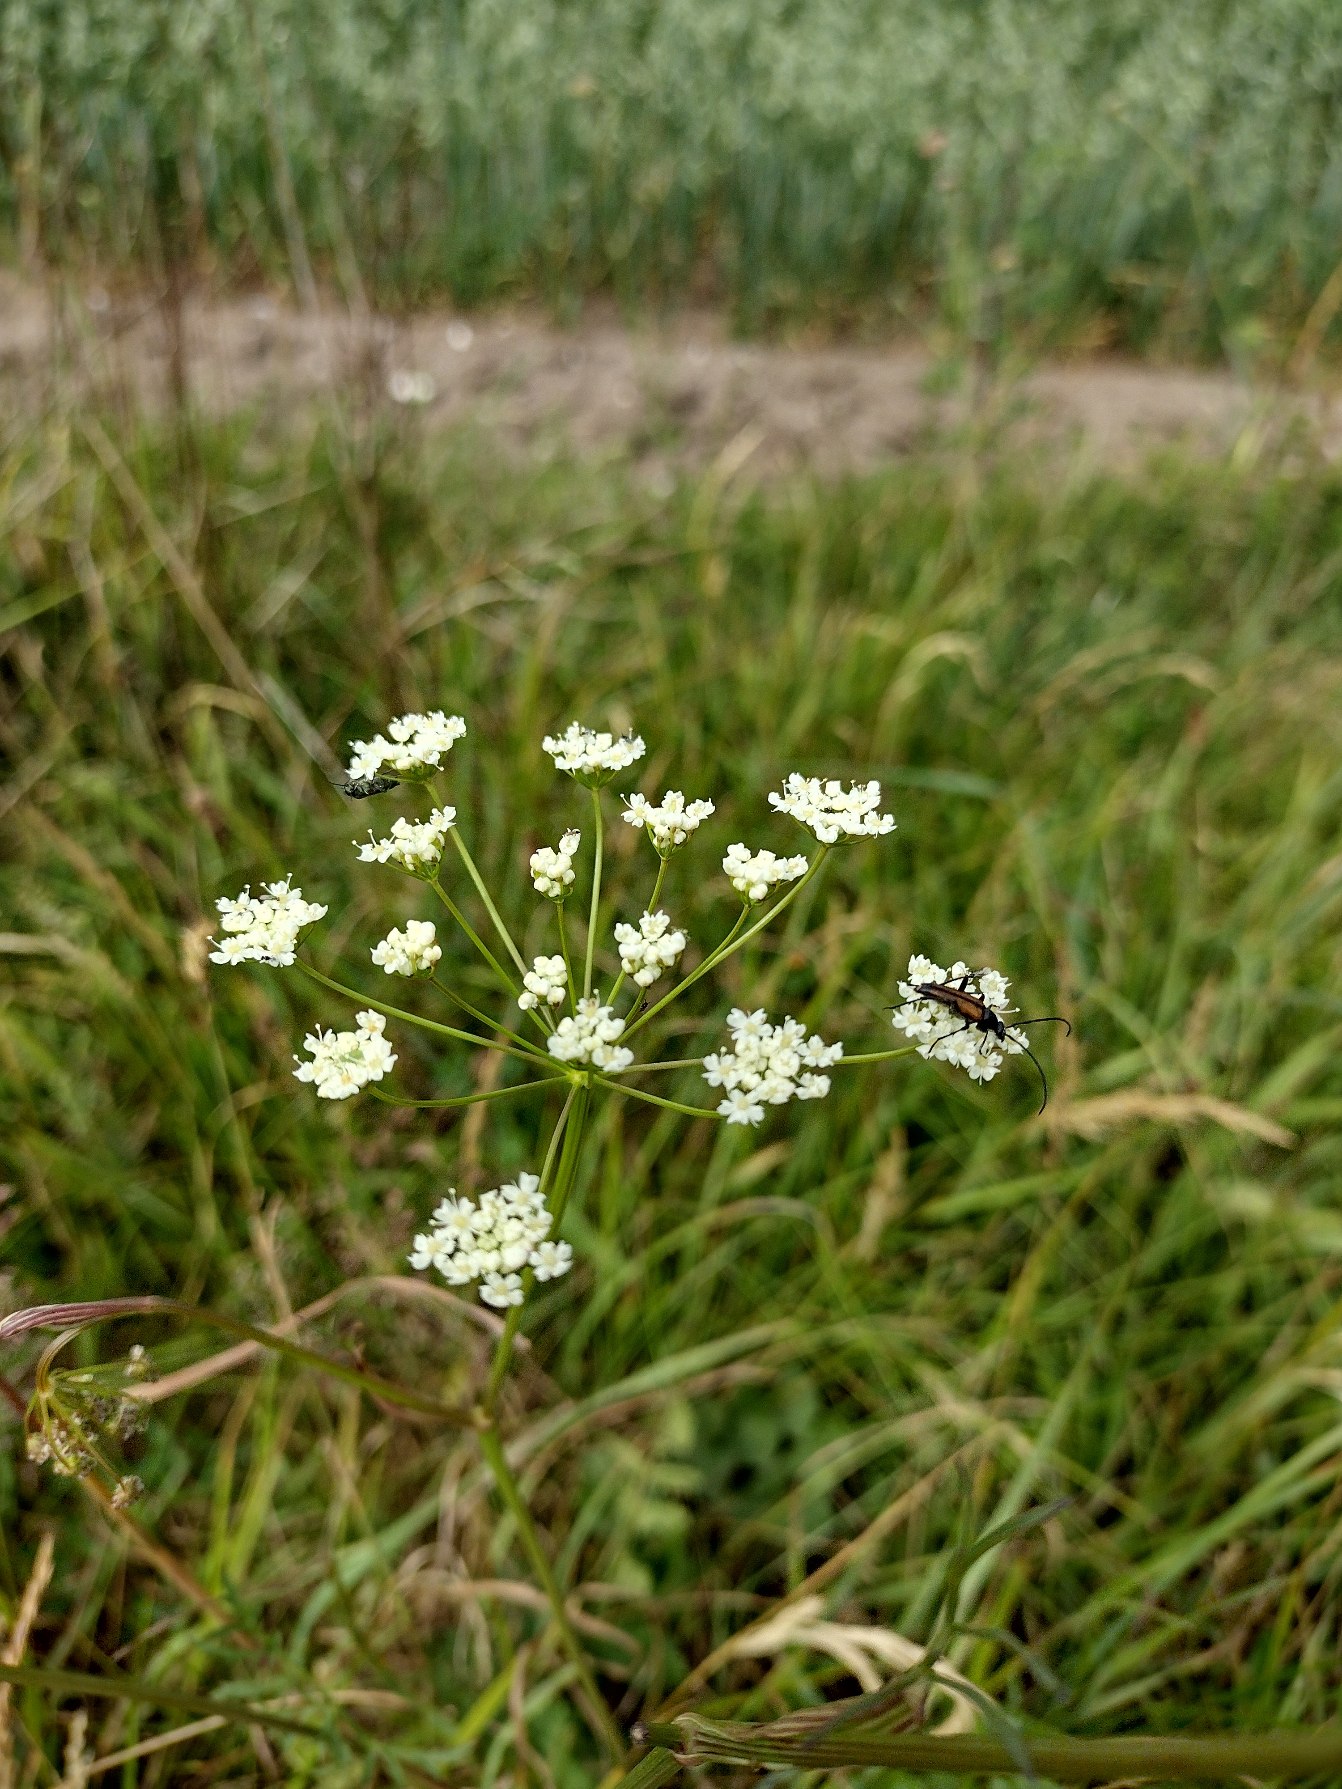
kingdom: Plantae
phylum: Tracheophyta
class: Magnoliopsida
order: Apiales
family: Apiaceae
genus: Pimpinella
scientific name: Pimpinella saxifraga
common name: Almindelig pimpinelle
